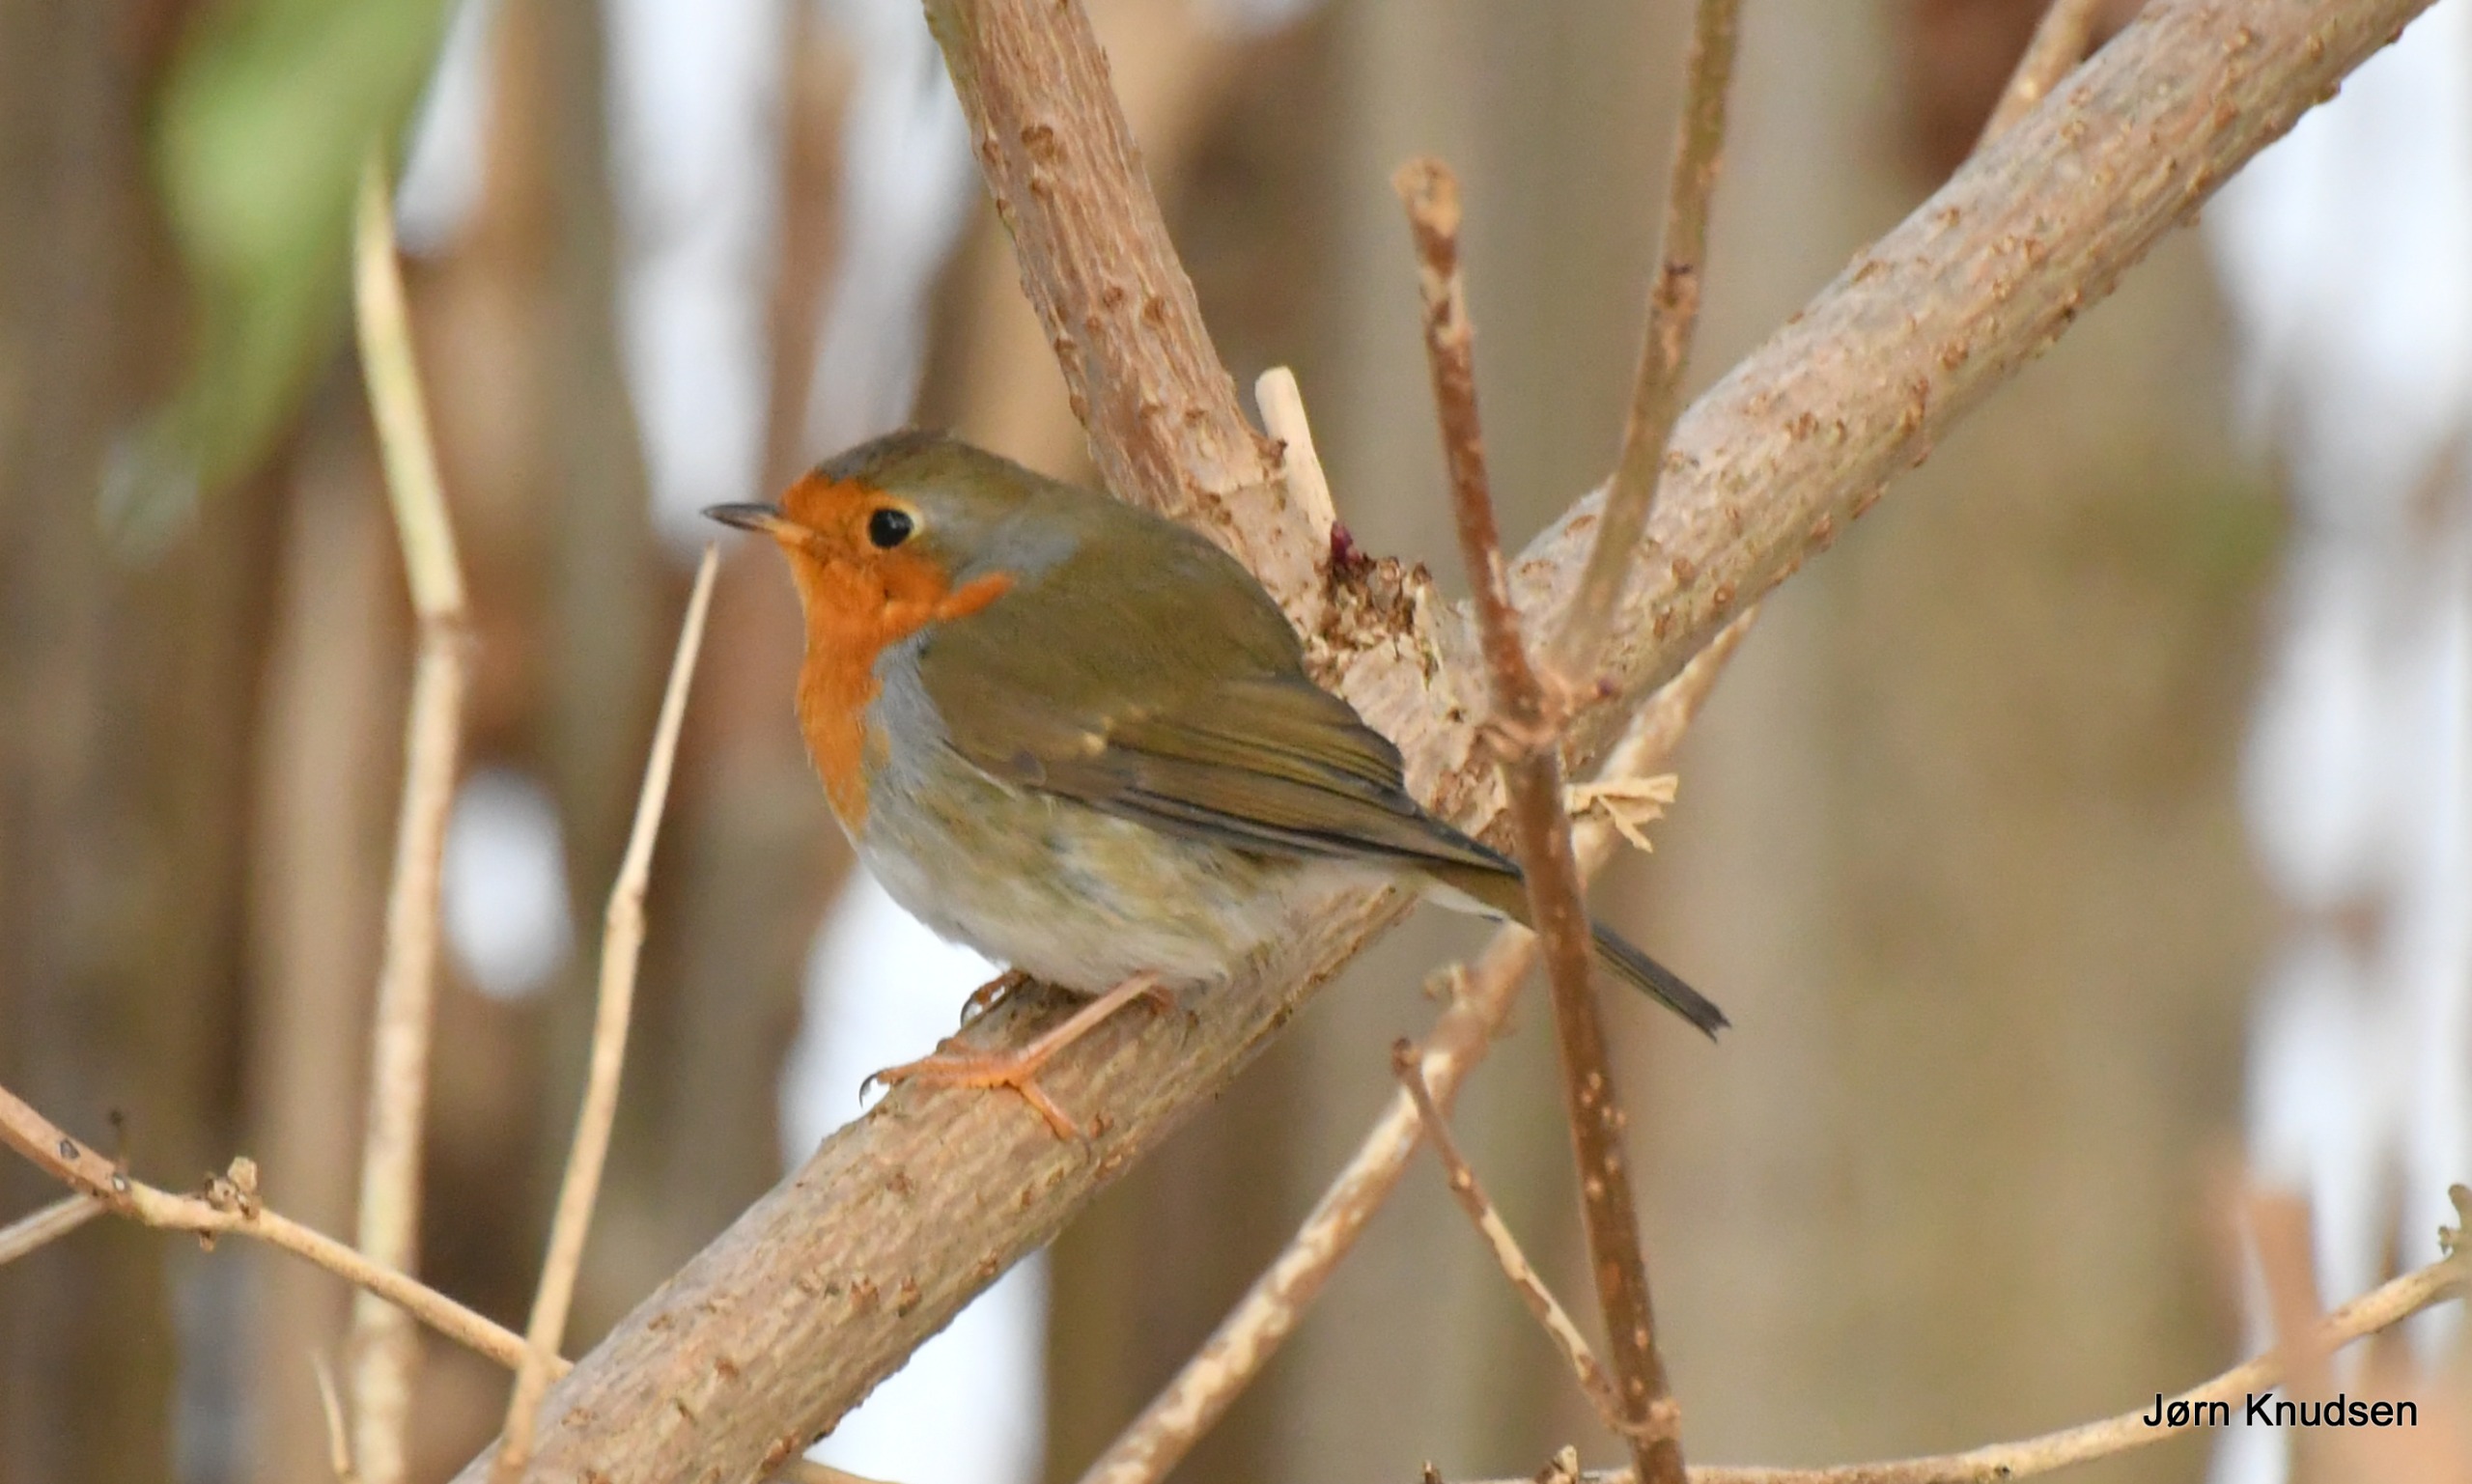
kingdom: Animalia
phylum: Chordata
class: Aves
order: Passeriformes
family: Muscicapidae
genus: Erithacus
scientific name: Erithacus rubecula
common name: Rødhals/rødkælk
